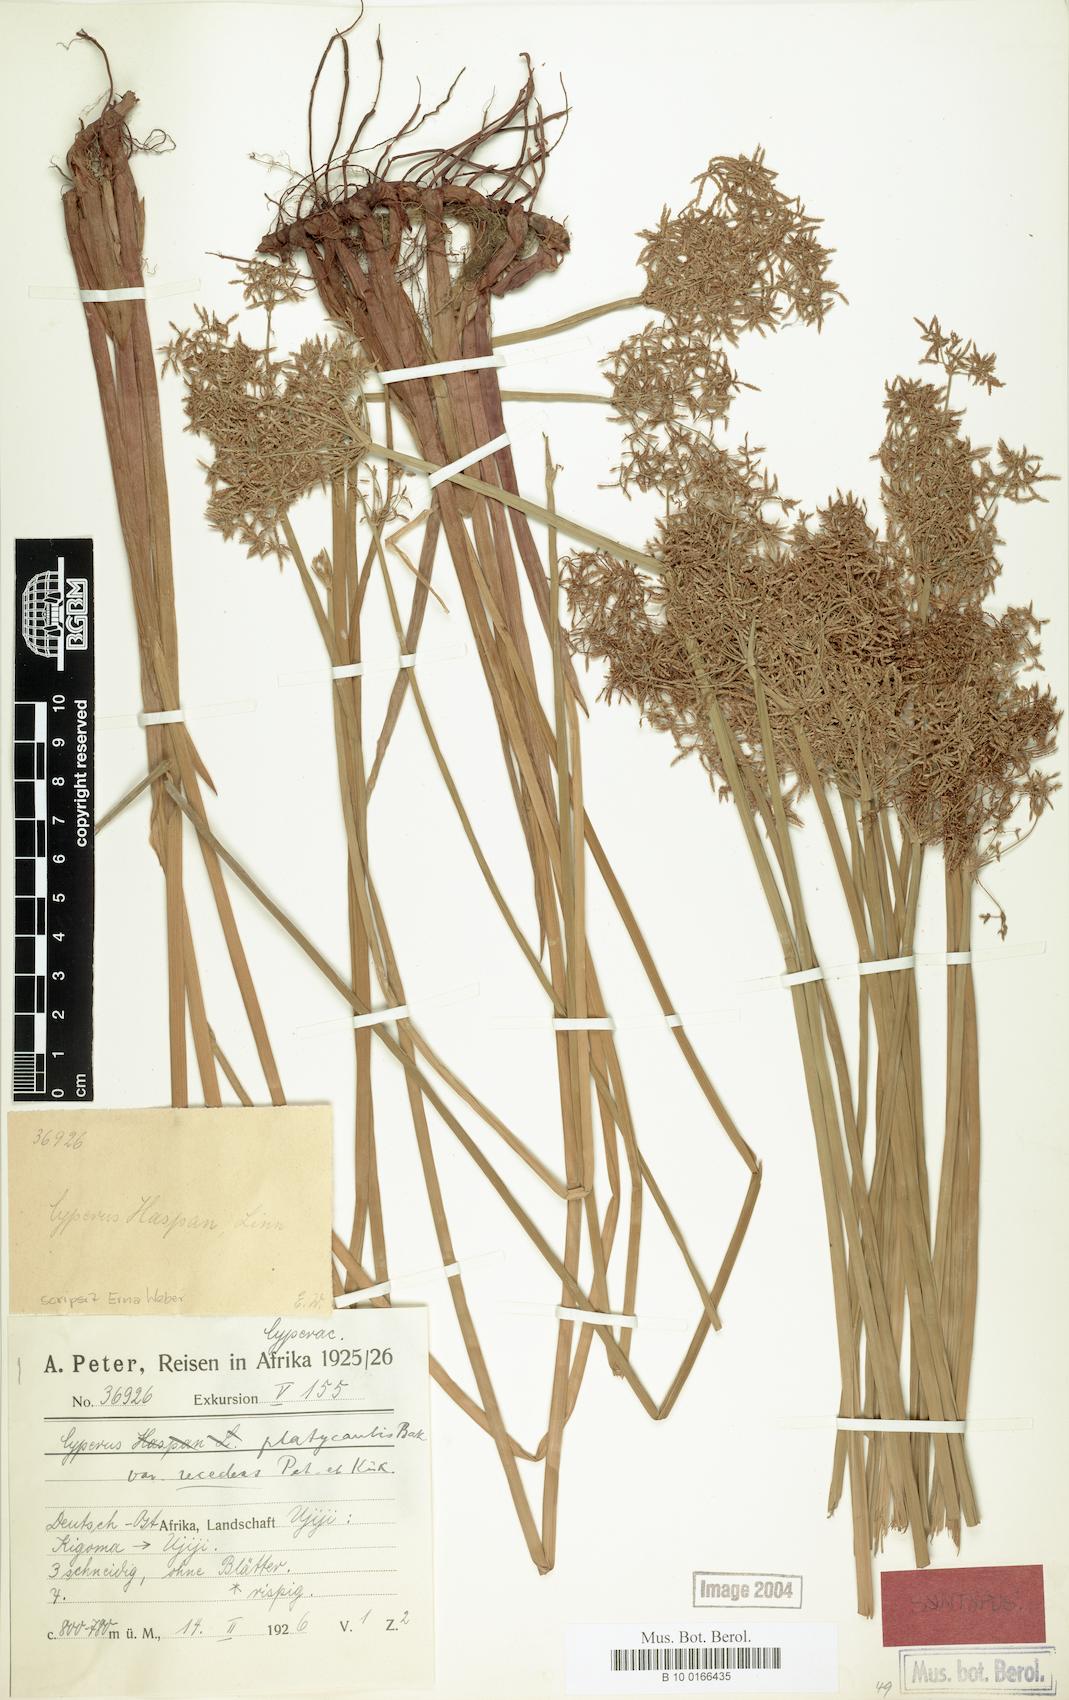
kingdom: Plantae
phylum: Tracheophyta
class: Liliopsida
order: Poales
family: Cyperaceae
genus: Cyperus
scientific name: Cyperus denudatus
